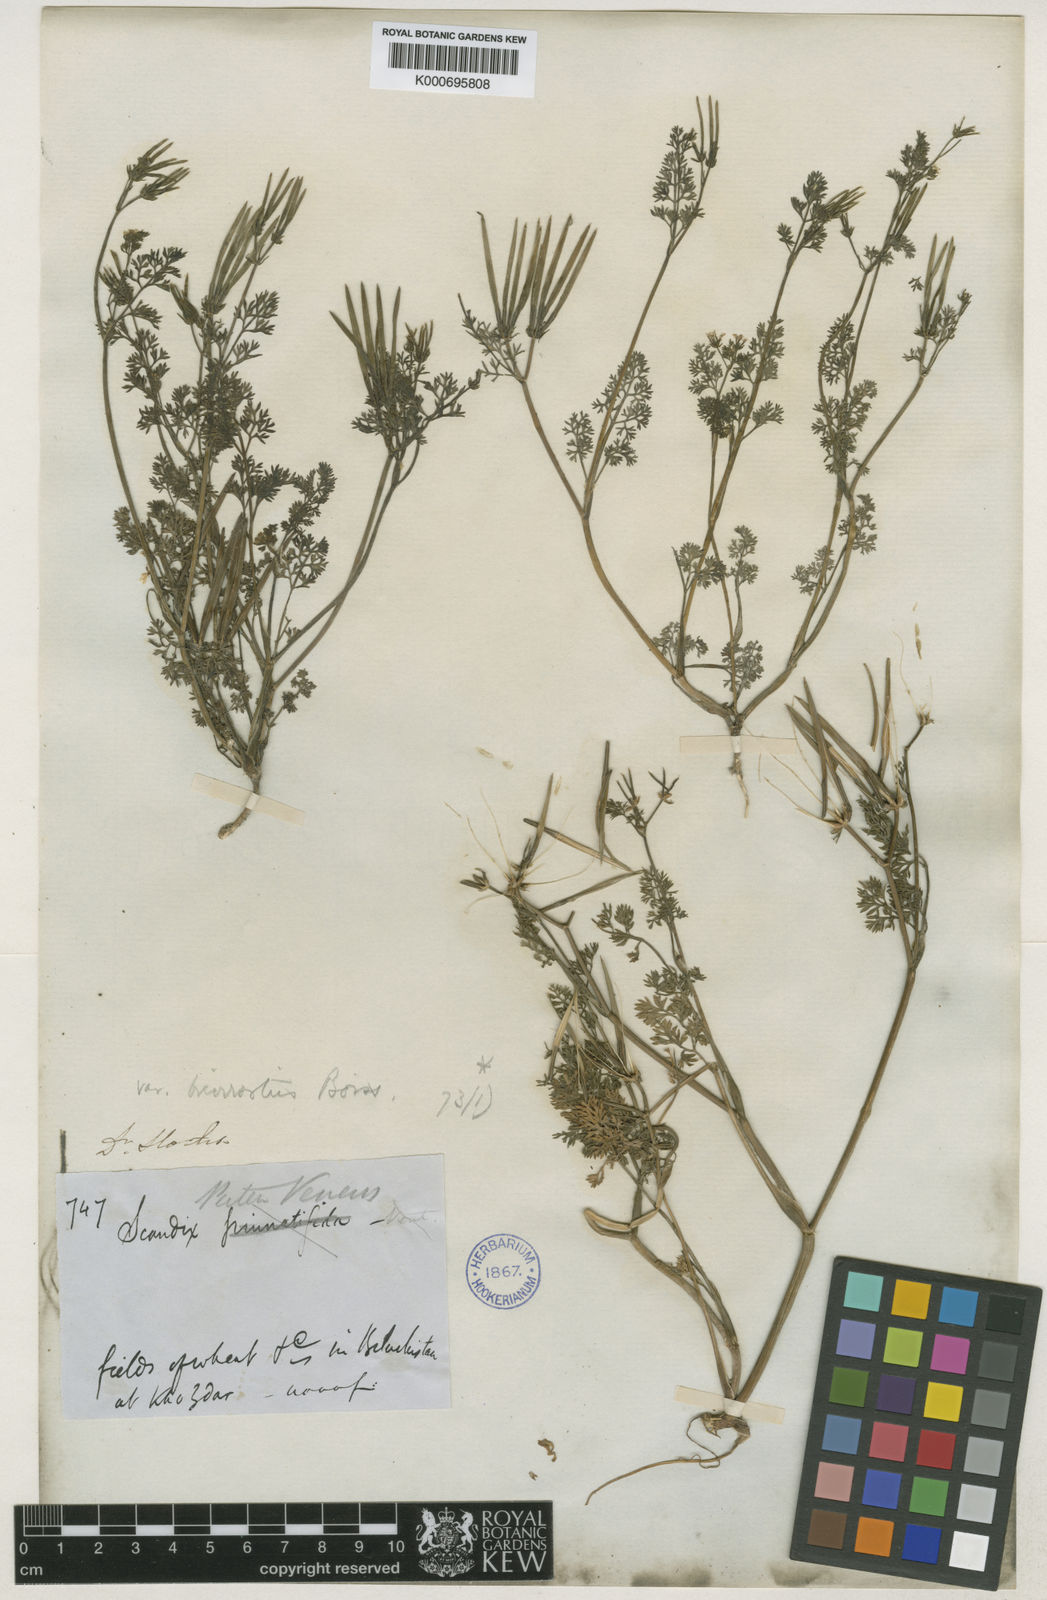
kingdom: Plantae
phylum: Tracheophyta
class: Magnoliopsida
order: Apiales
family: Apiaceae
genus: Scandix
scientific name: Scandix pecten-veneris
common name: Shepherd's-needle
